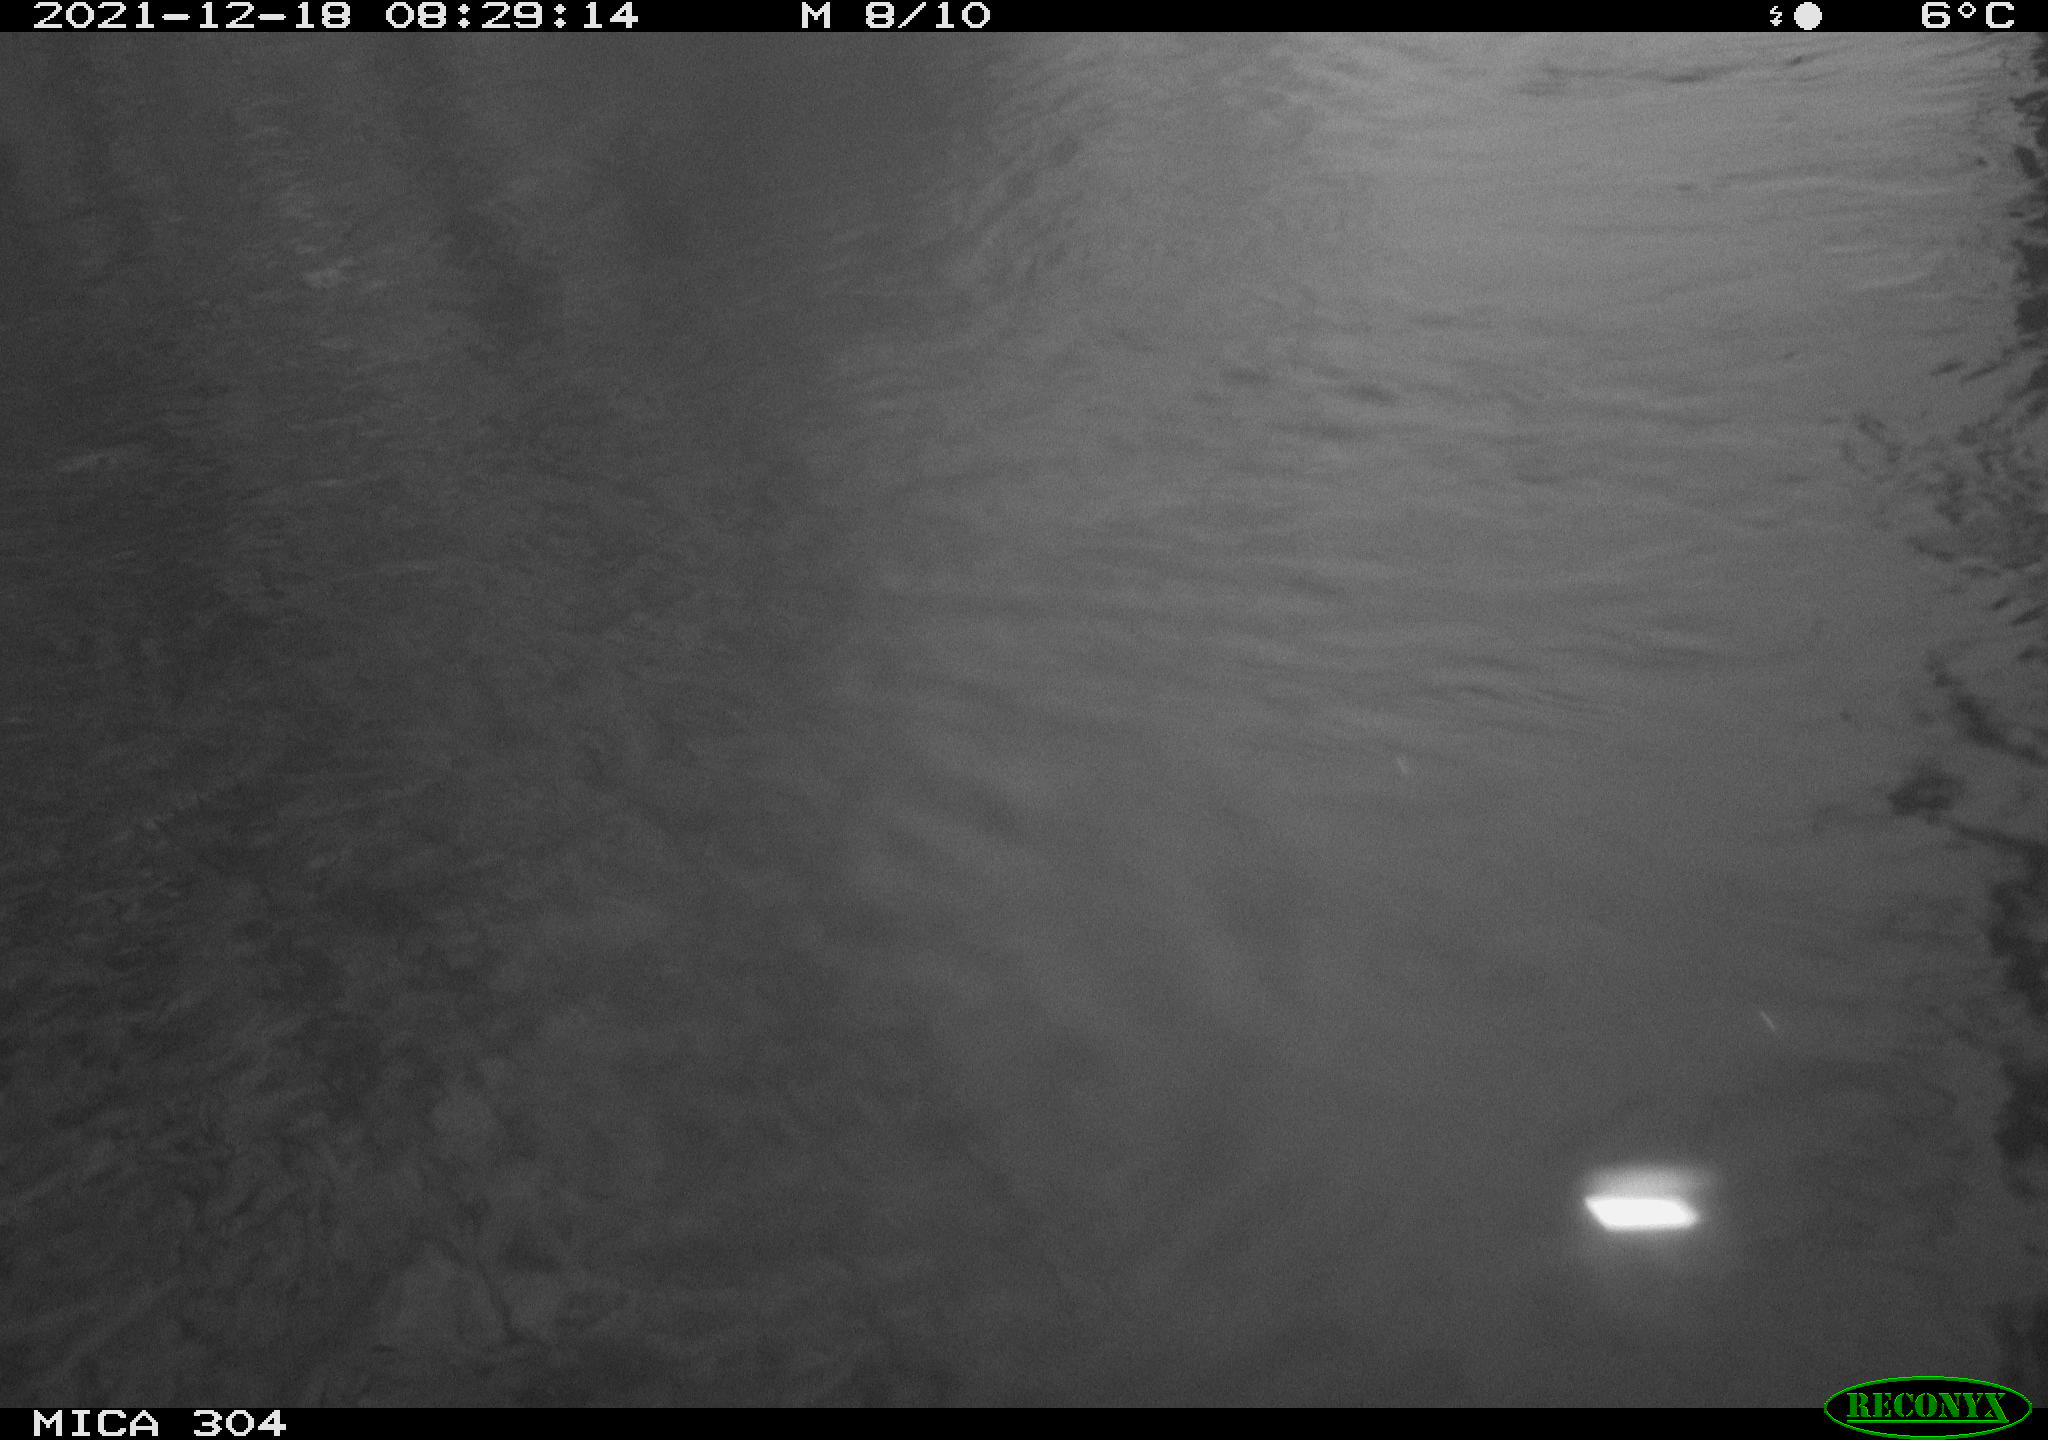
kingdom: Animalia
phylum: Chordata
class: Aves
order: Gruiformes
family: Rallidae
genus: Fulica
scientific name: Fulica atra
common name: Eurasian coot
